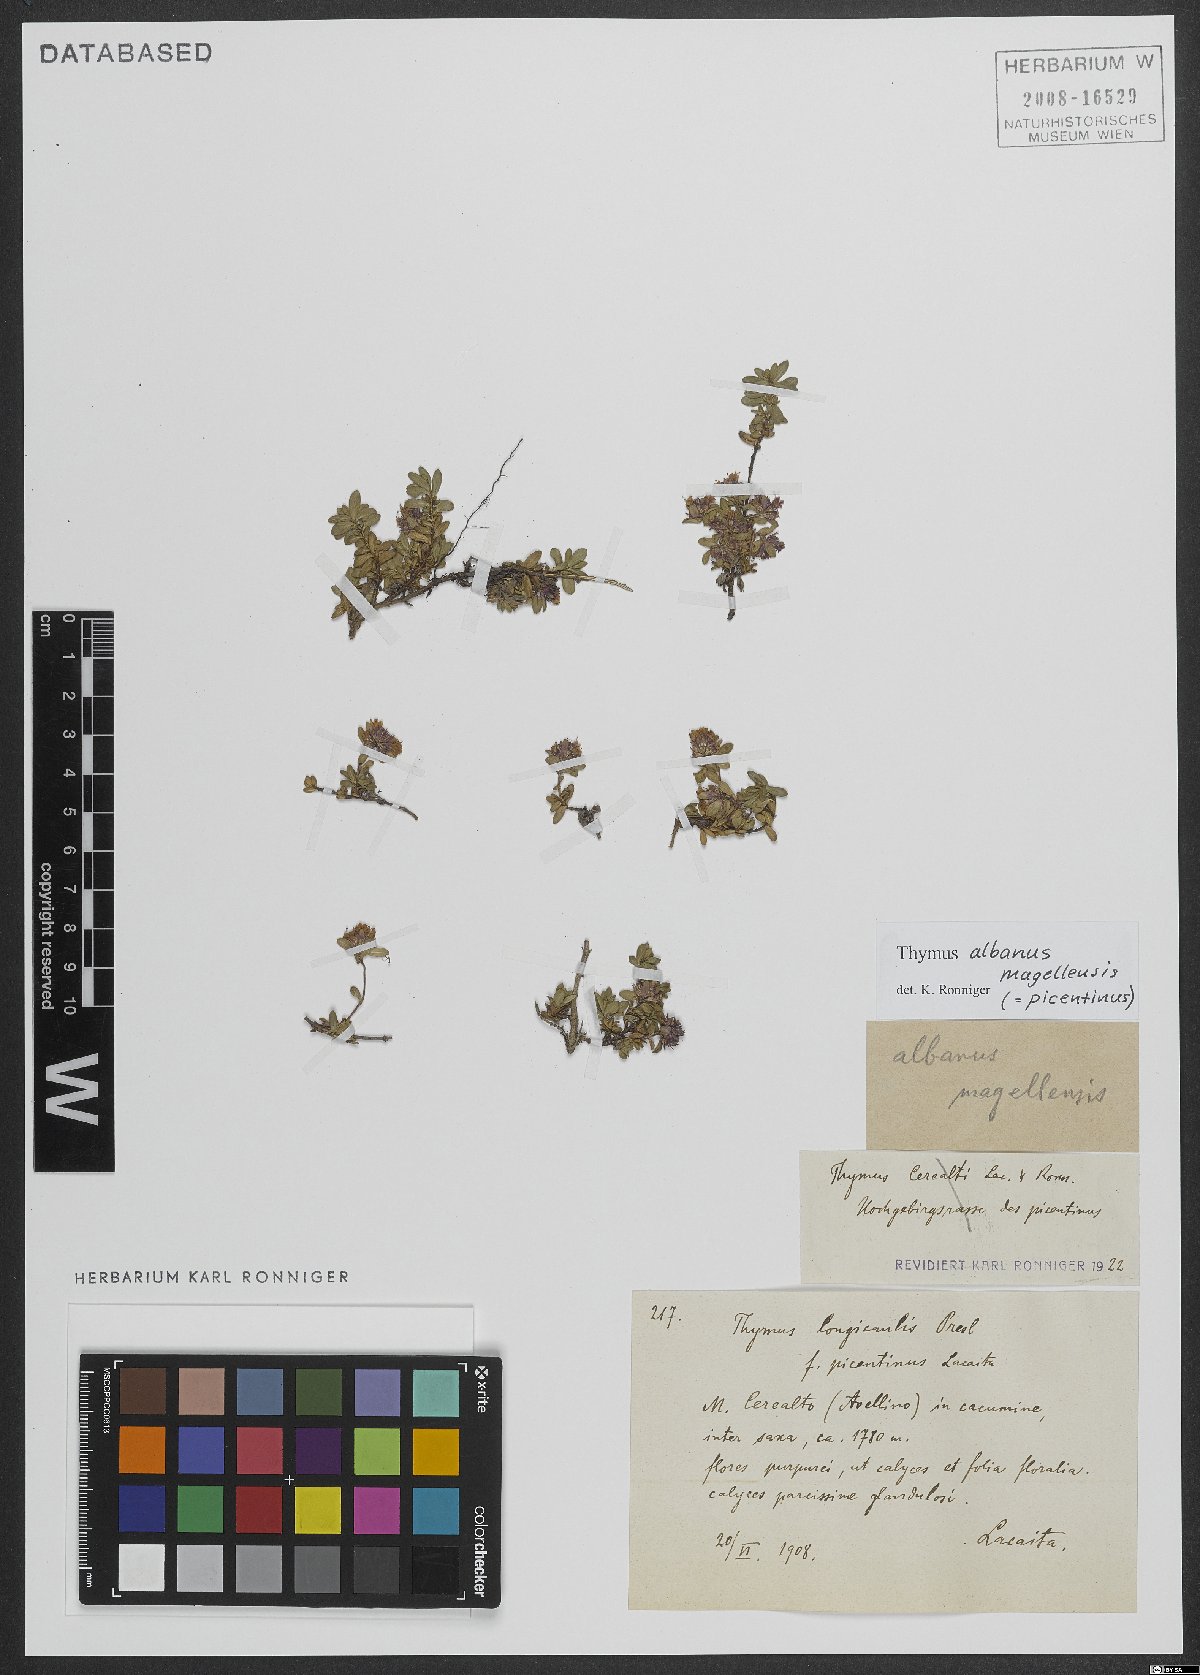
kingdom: Plantae
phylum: Tracheophyta
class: Magnoliopsida
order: Lamiales
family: Lamiaceae
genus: Thymus
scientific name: Thymus praecox
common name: Wild thyme
